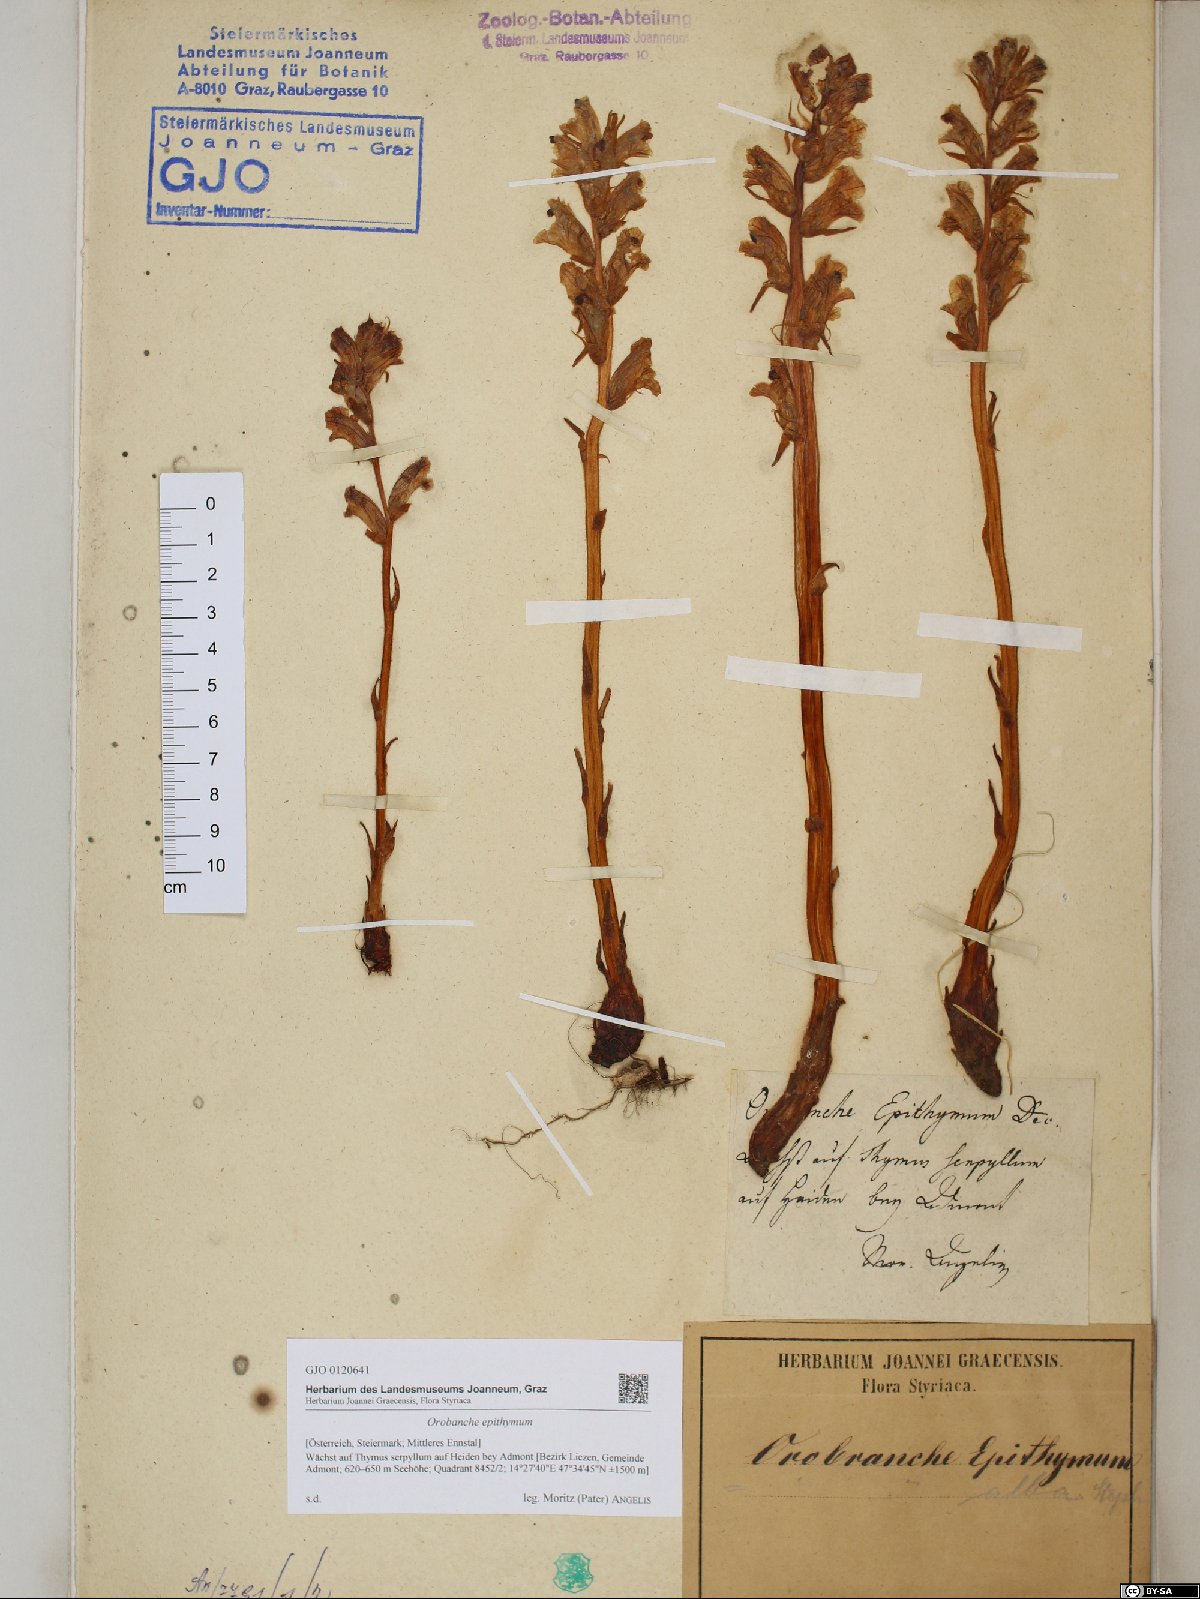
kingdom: Plantae
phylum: Tracheophyta
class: Magnoliopsida
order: Lamiales
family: Orobanchaceae
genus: Orobanche
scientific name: Orobanche alba
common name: Thyme broomrape
